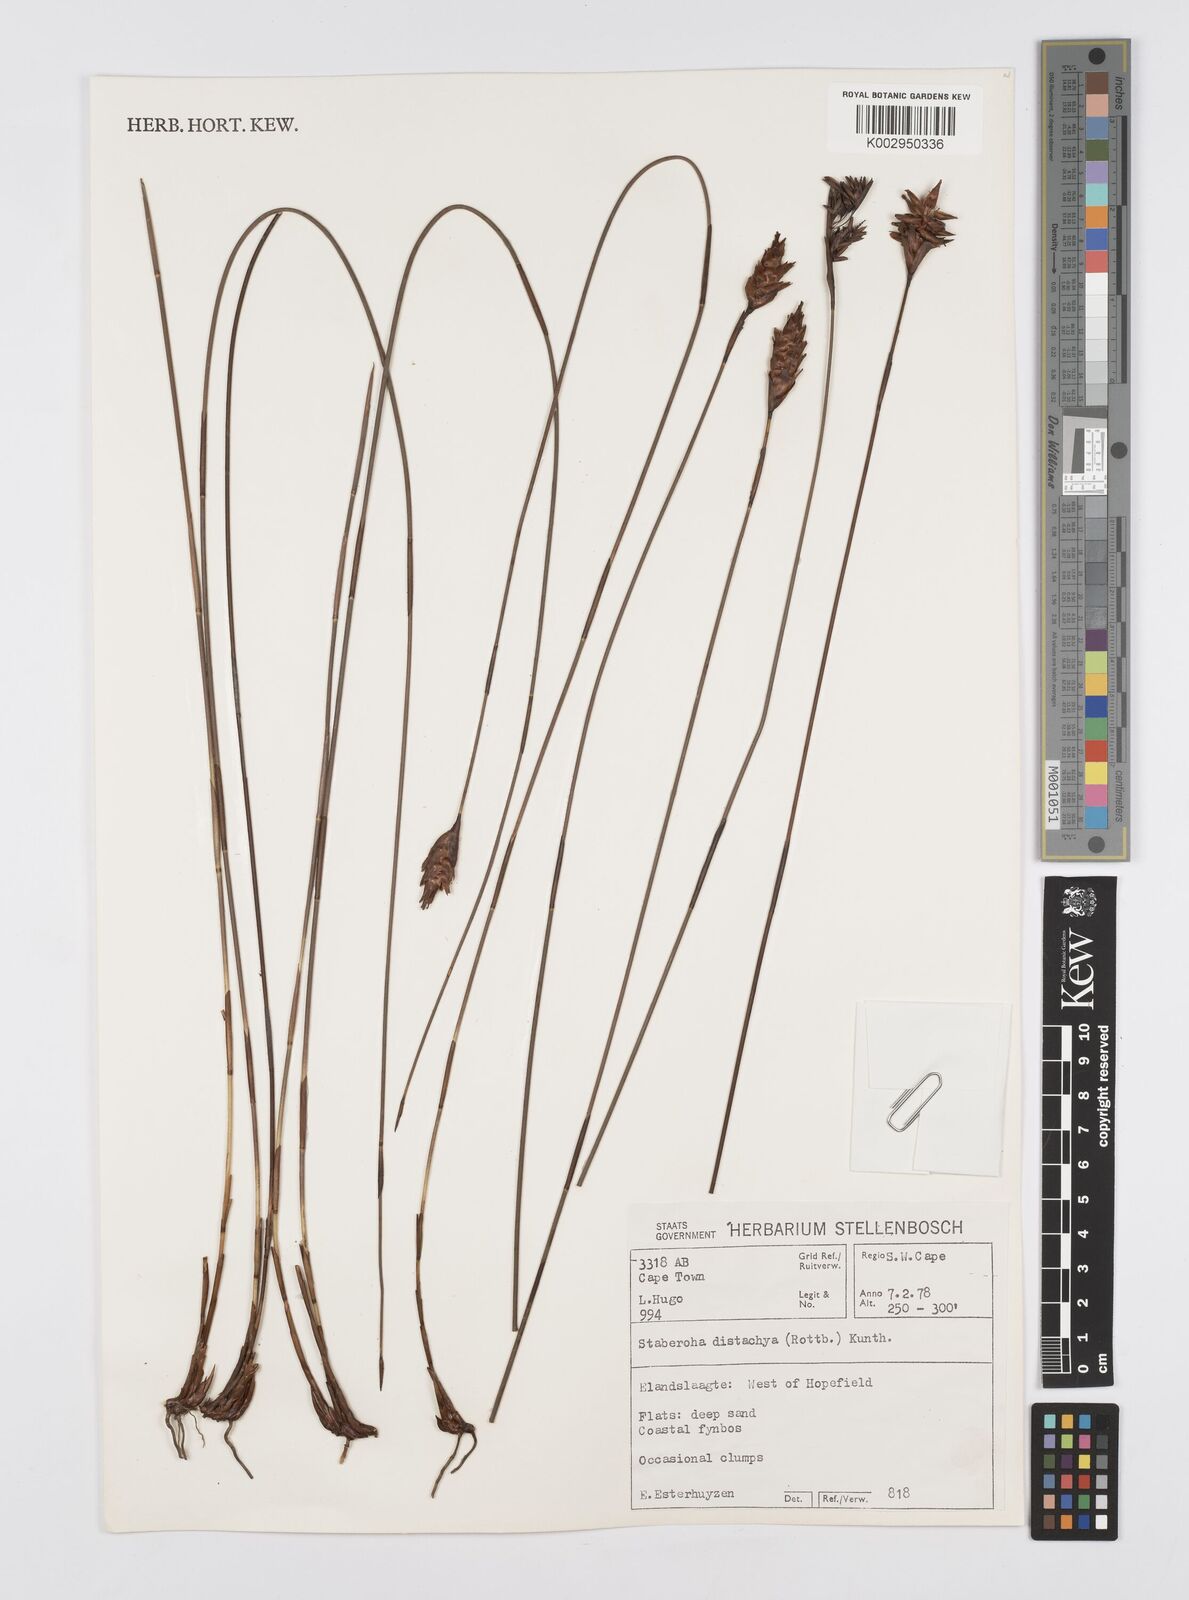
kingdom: Plantae
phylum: Tracheophyta
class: Liliopsida
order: Poales
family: Restionaceae
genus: Staberoha
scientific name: Staberoha distachyos
